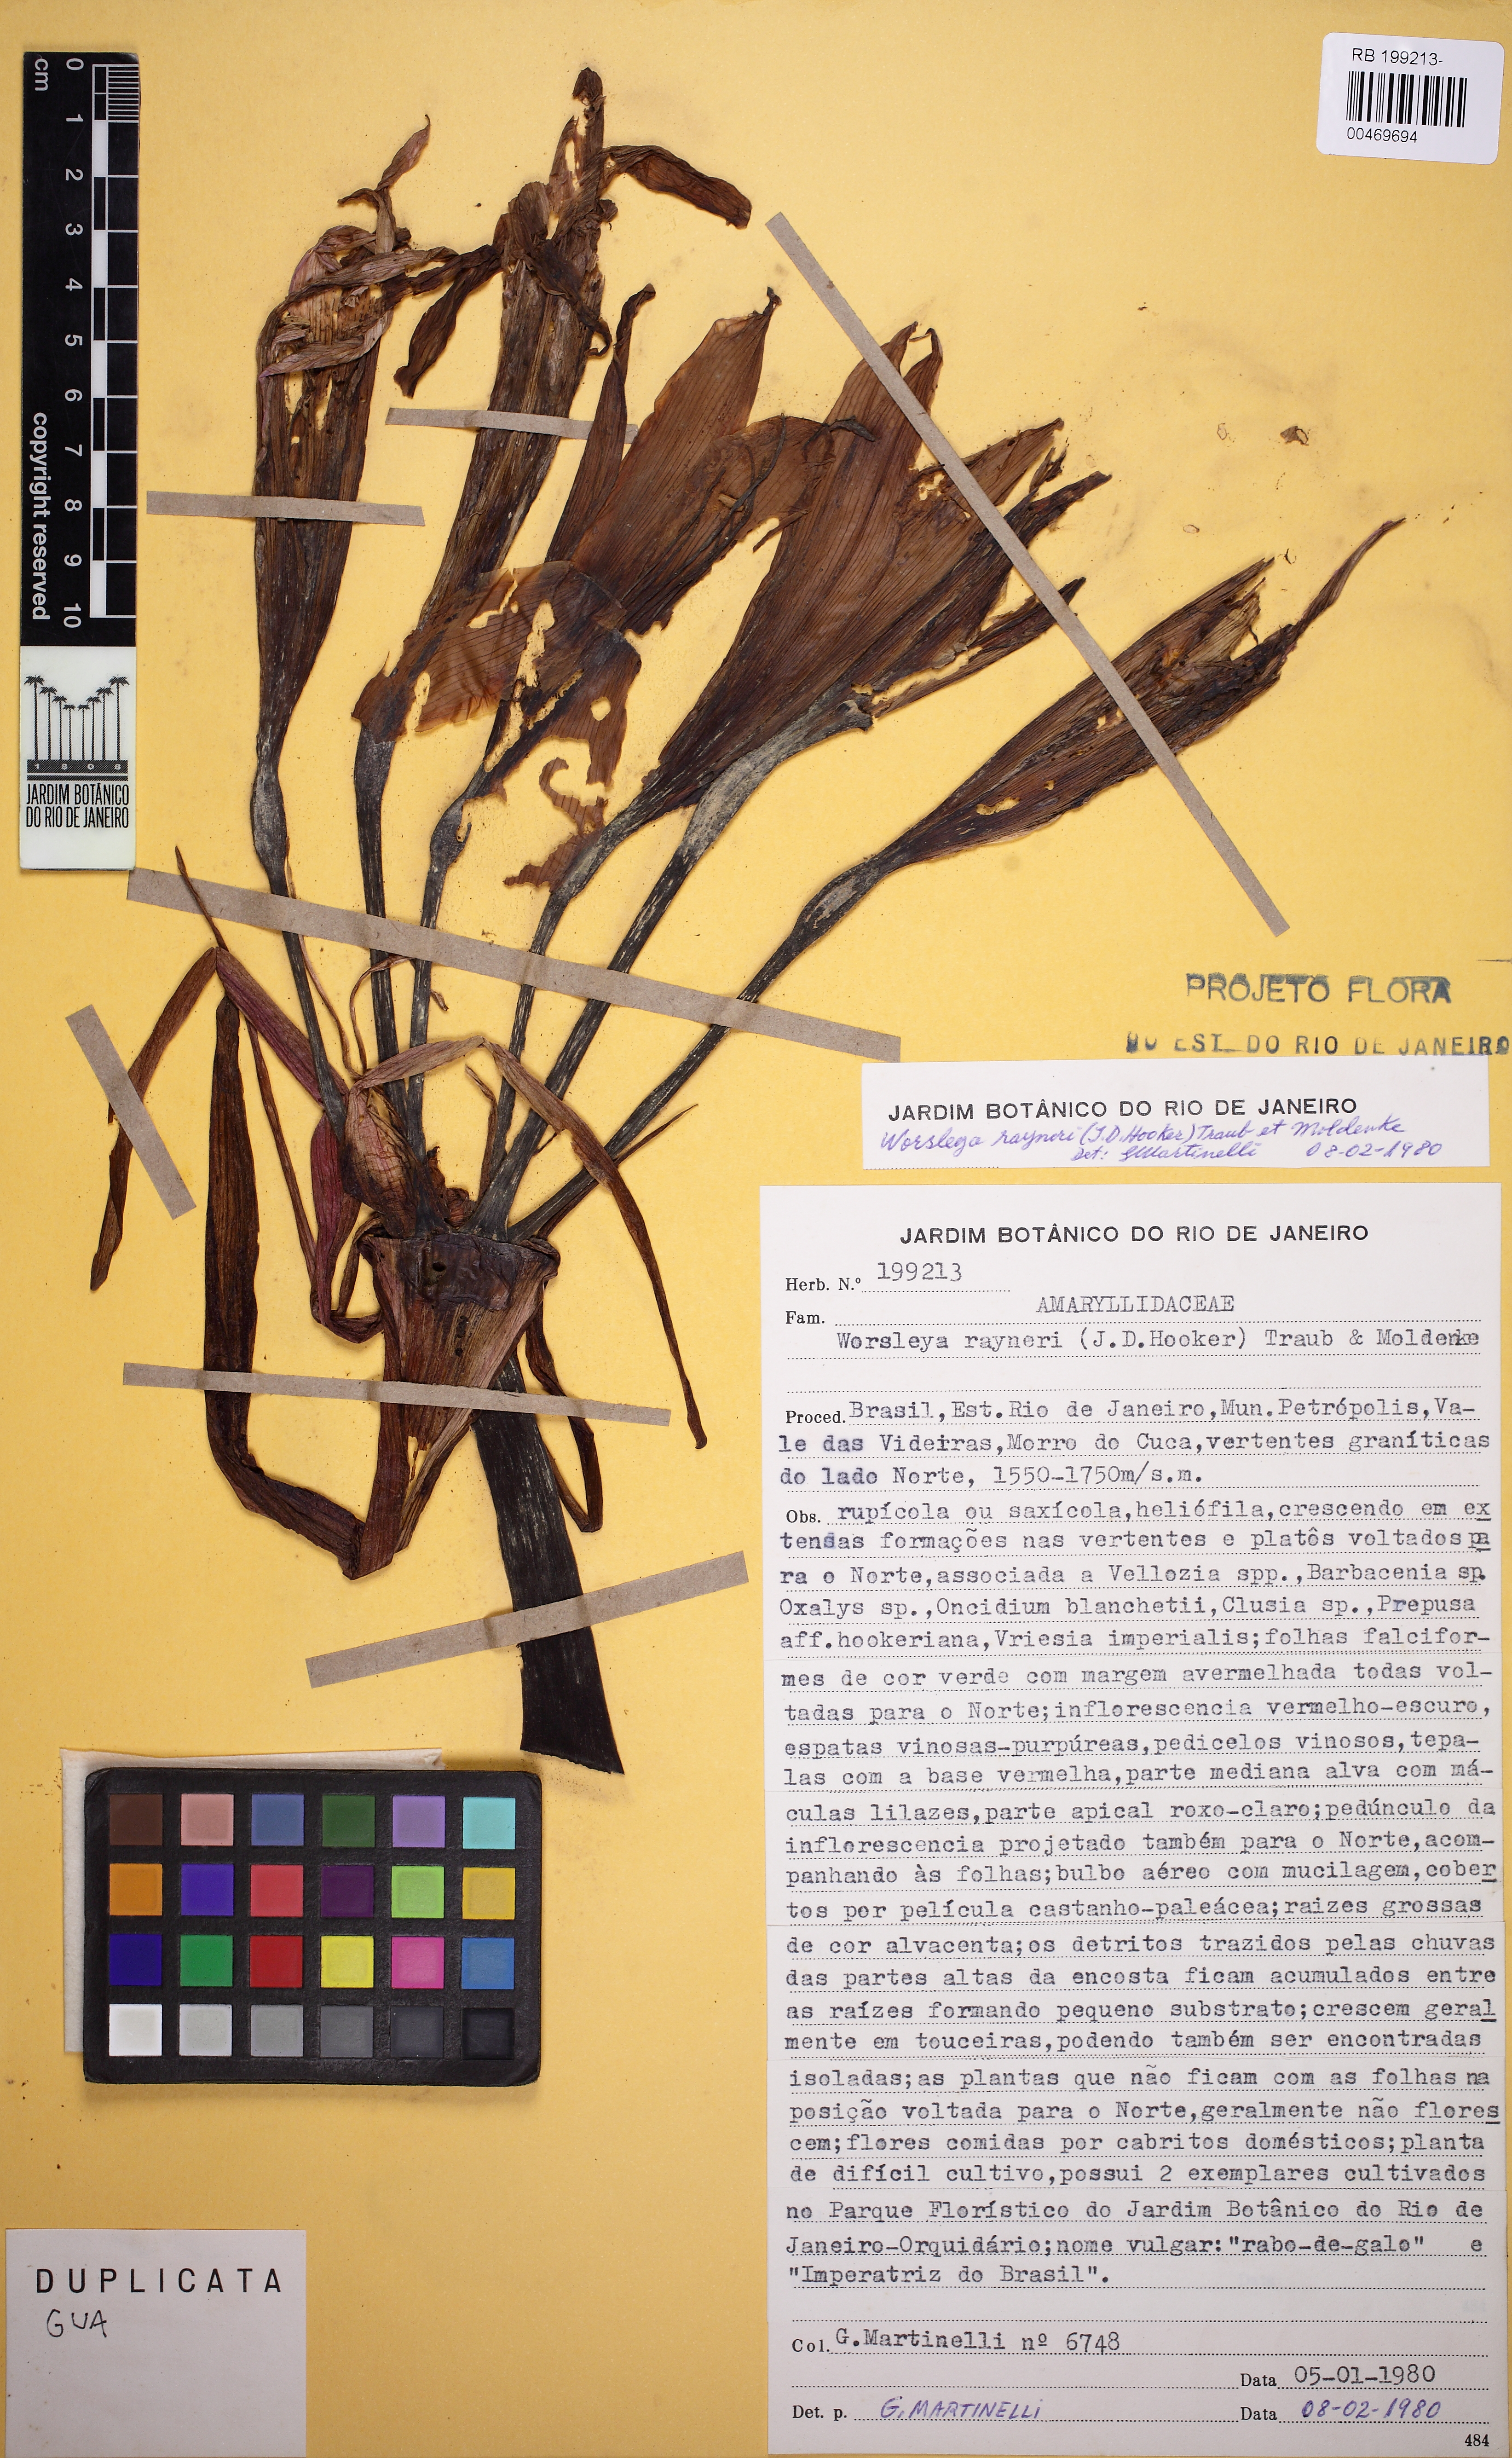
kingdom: Plantae
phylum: Tracheophyta
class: Liliopsida
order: Asparagales
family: Amaryllidaceae
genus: Worsleya
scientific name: Worsleya procera
